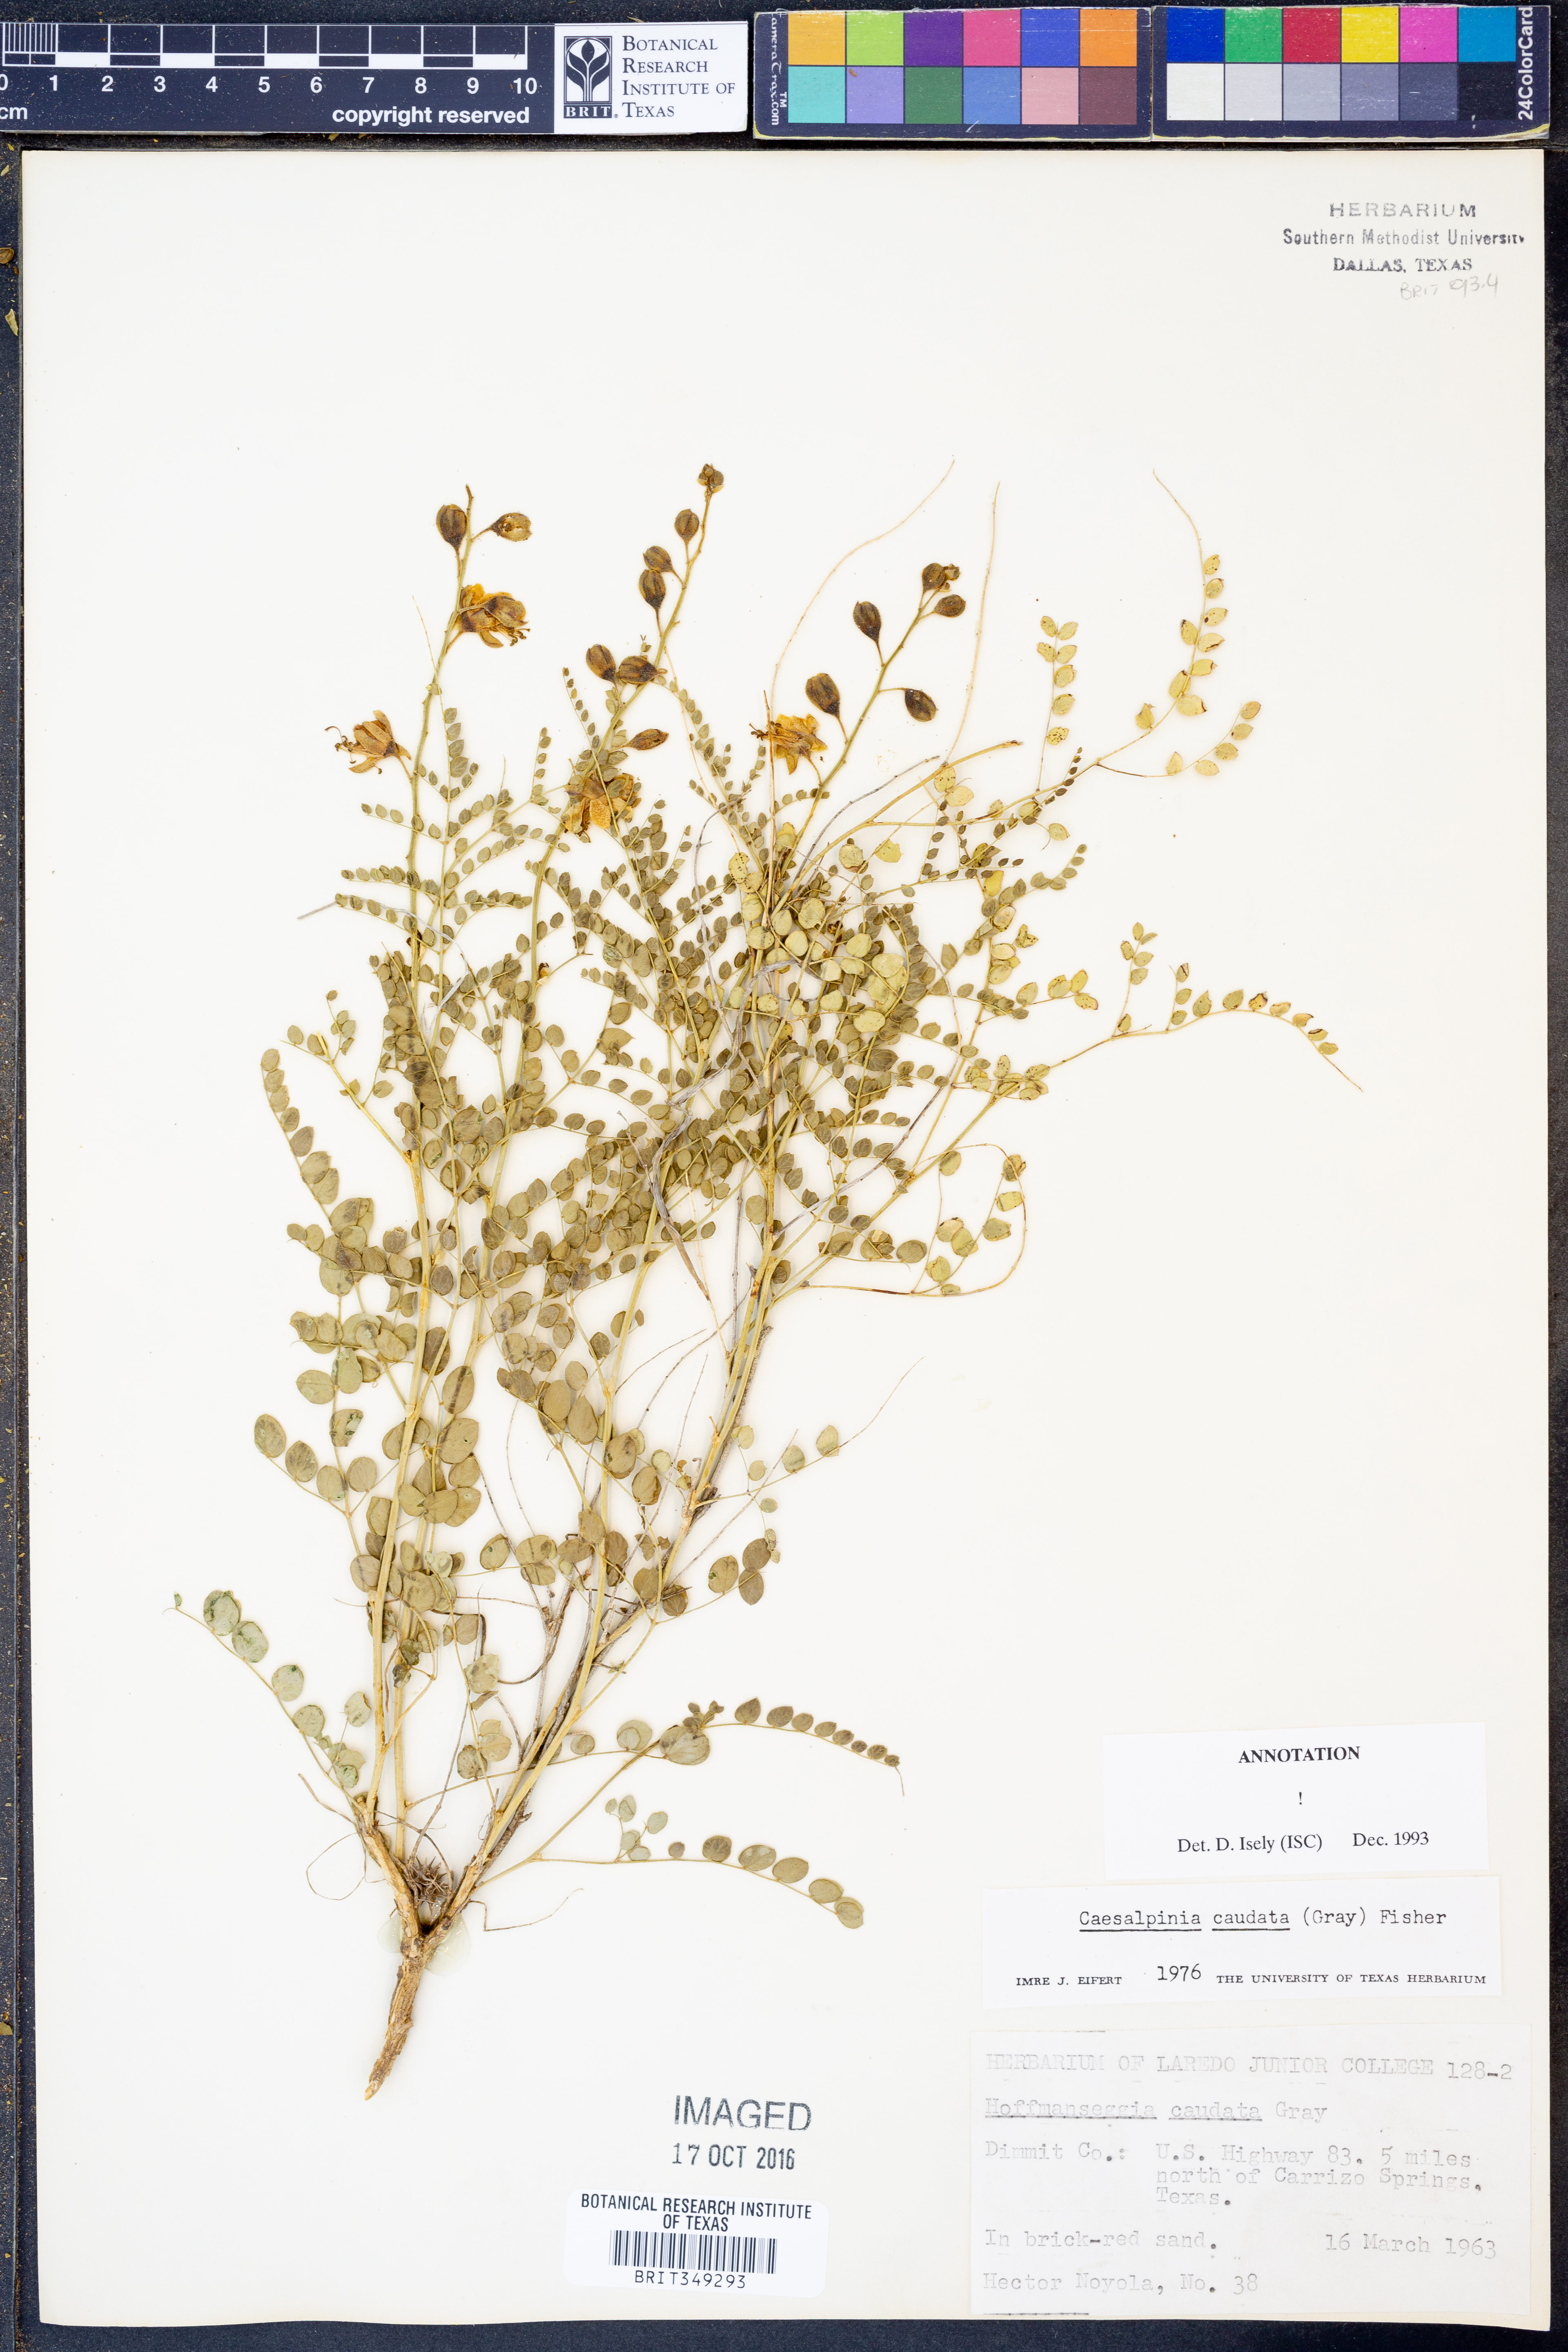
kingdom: Plantae
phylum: Tracheophyta
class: Magnoliopsida
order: Fabales
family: Fabaceae
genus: Erythrostemon
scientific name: Erythrostemon caudatus
